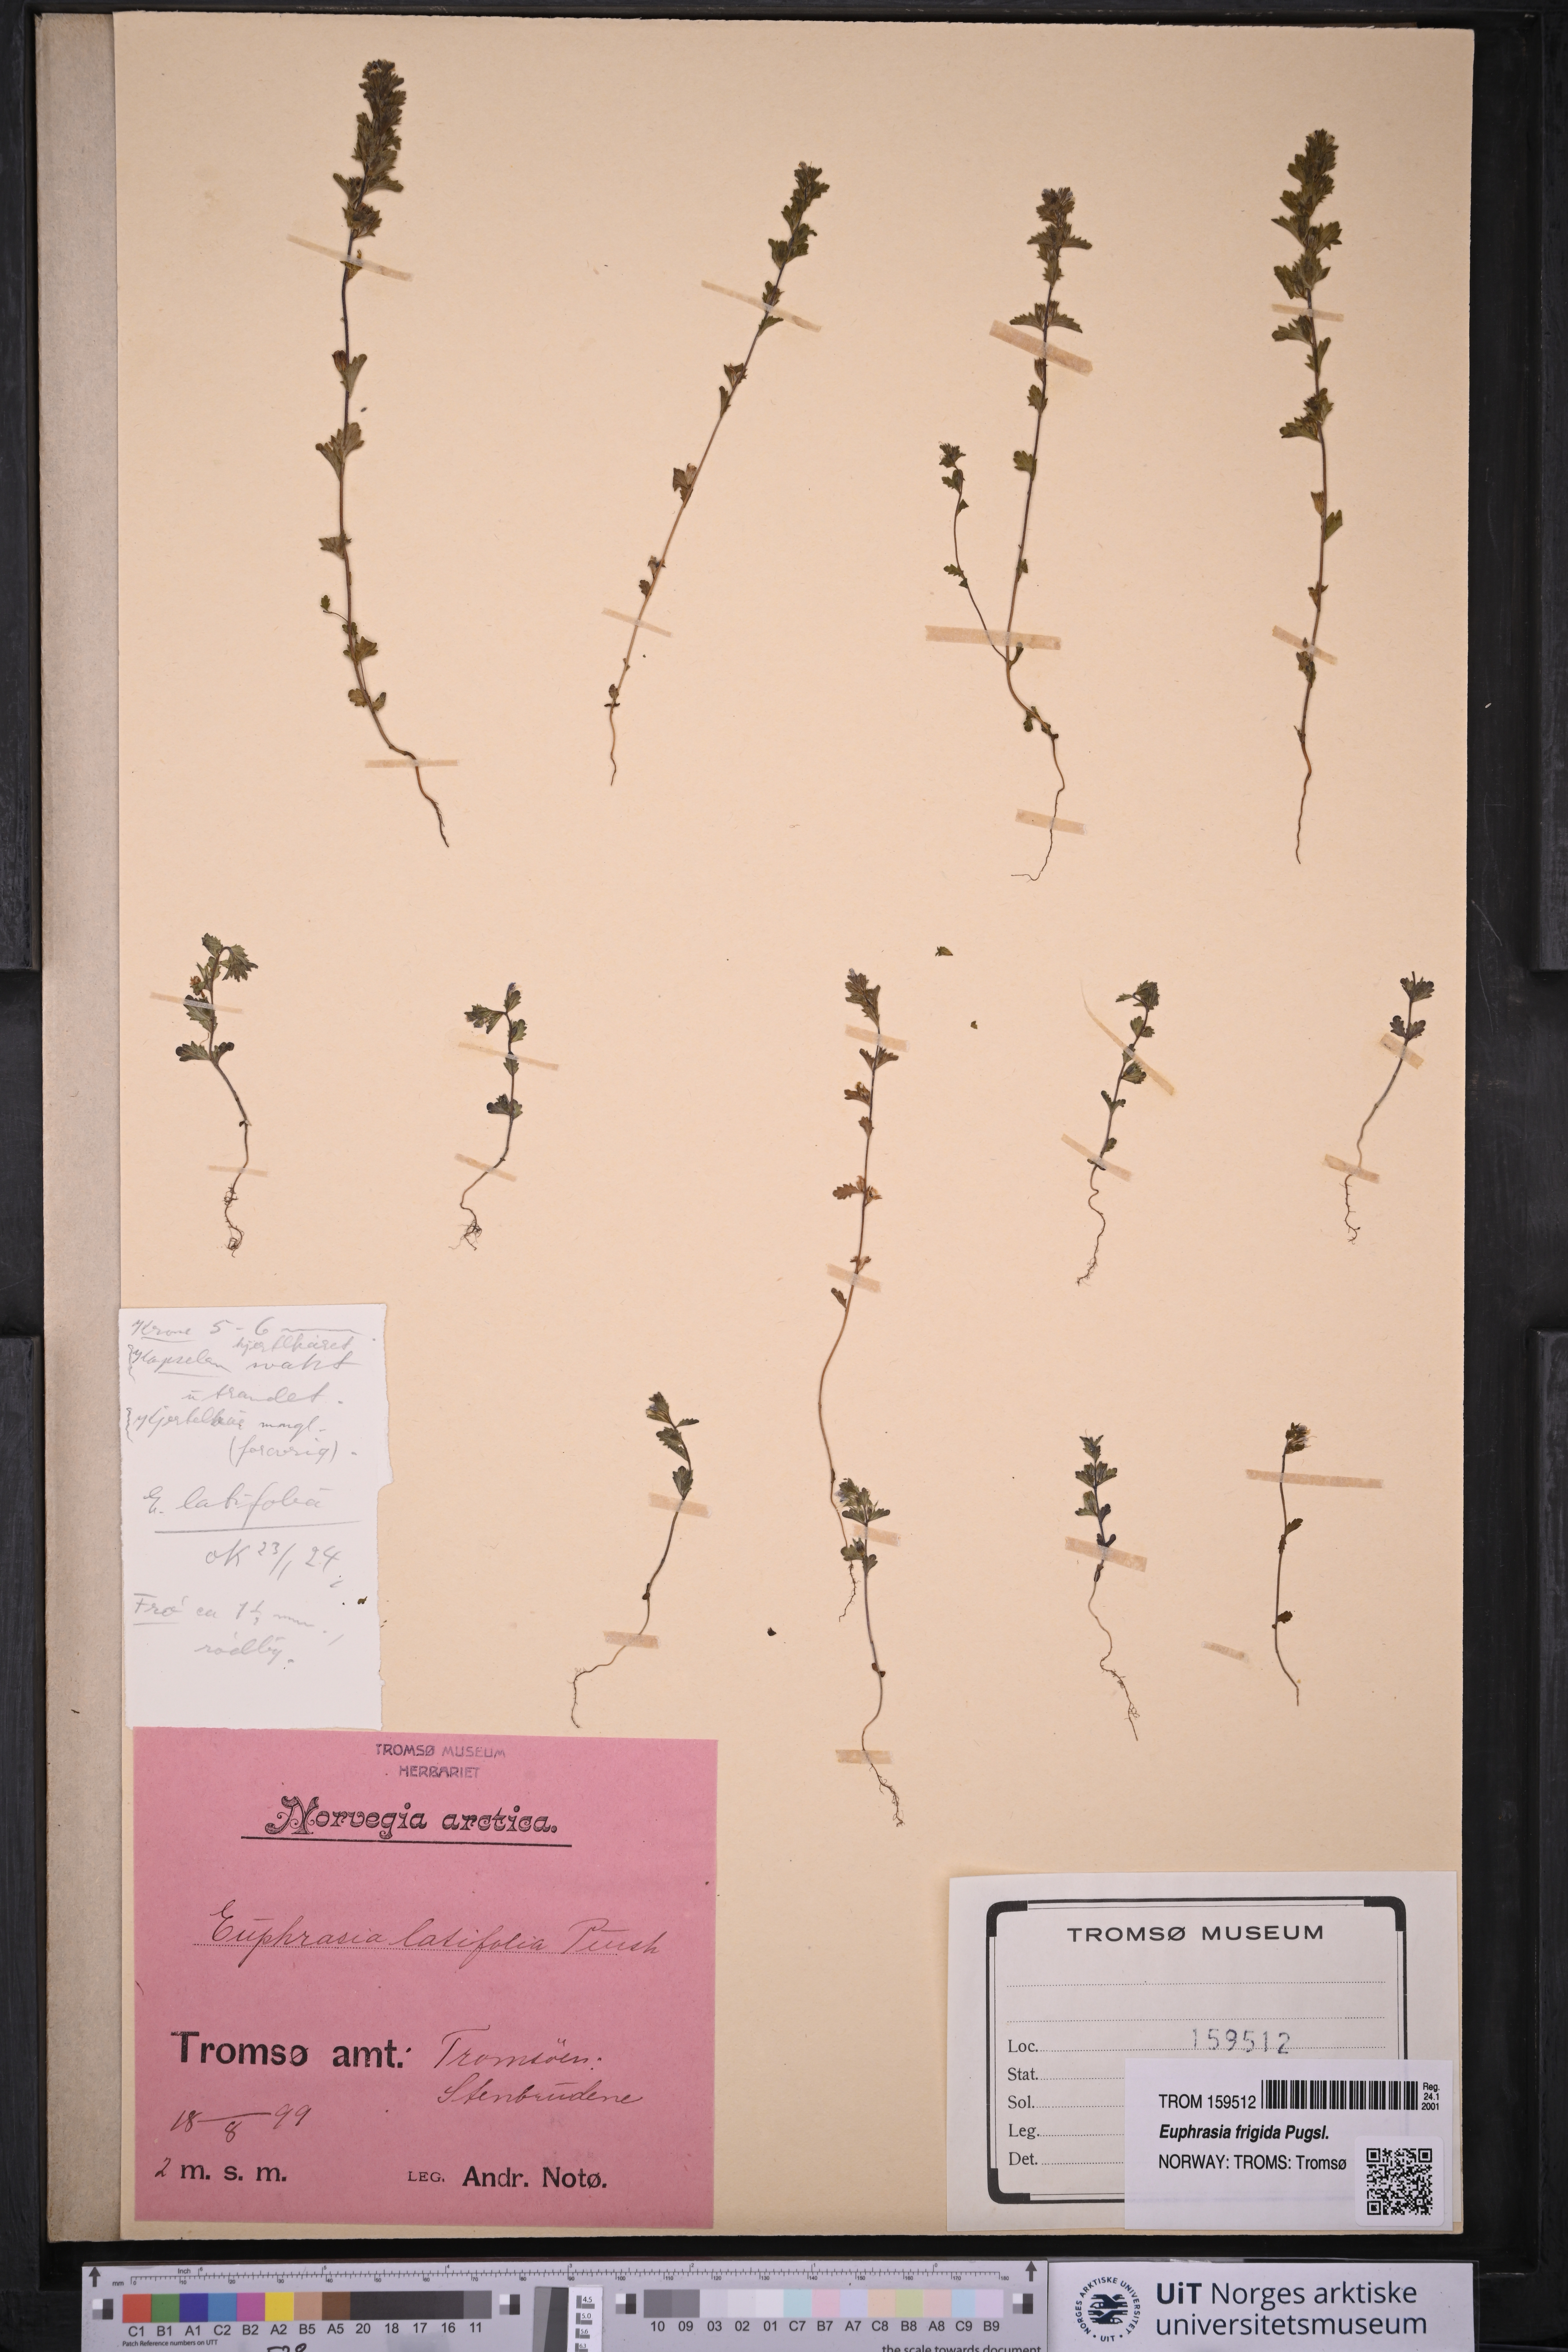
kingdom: Plantae
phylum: Tracheophyta
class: Magnoliopsida
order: Lamiales
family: Orobanchaceae
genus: Euphrasia
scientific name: Euphrasia wettsteinii
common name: Wettstein's eyebright
